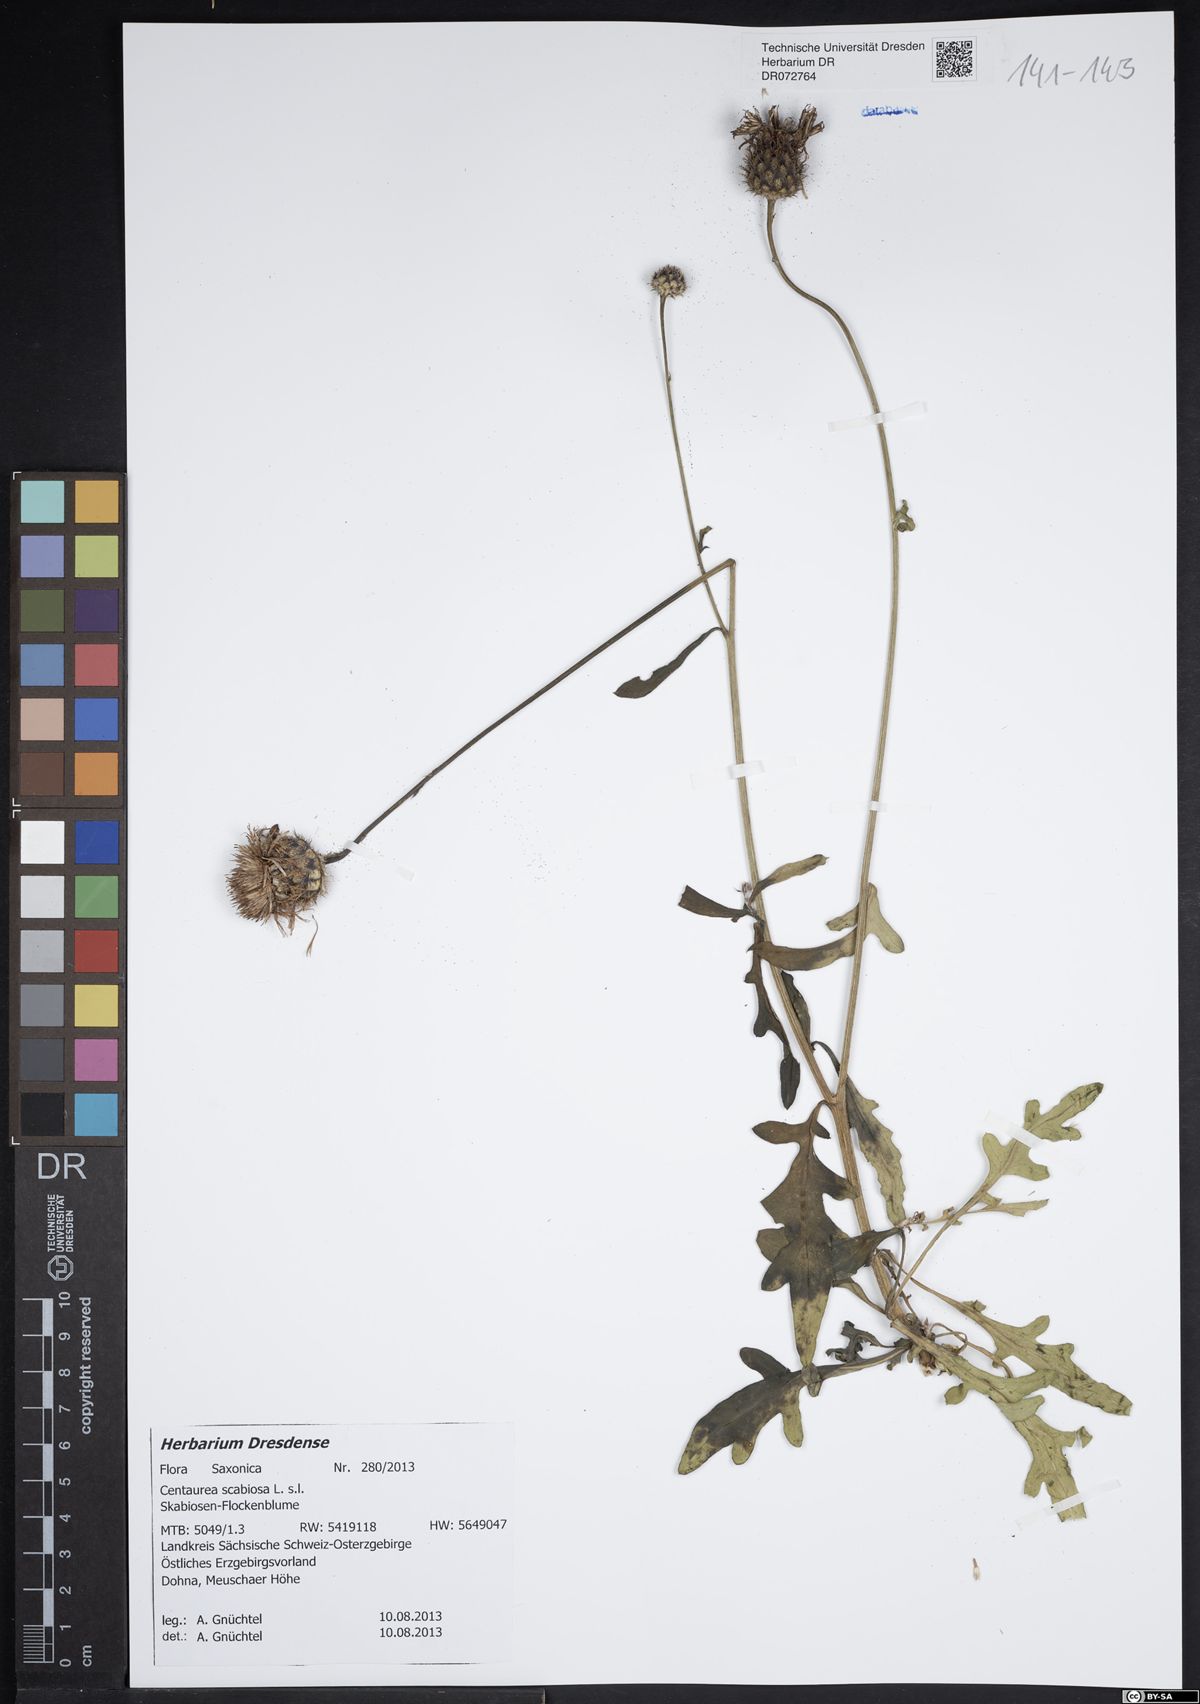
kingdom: Plantae
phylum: Tracheophyta
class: Magnoliopsida
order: Asterales
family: Asteraceae
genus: Centaurea
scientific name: Centaurea scabiosa
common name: Greater knapweed
